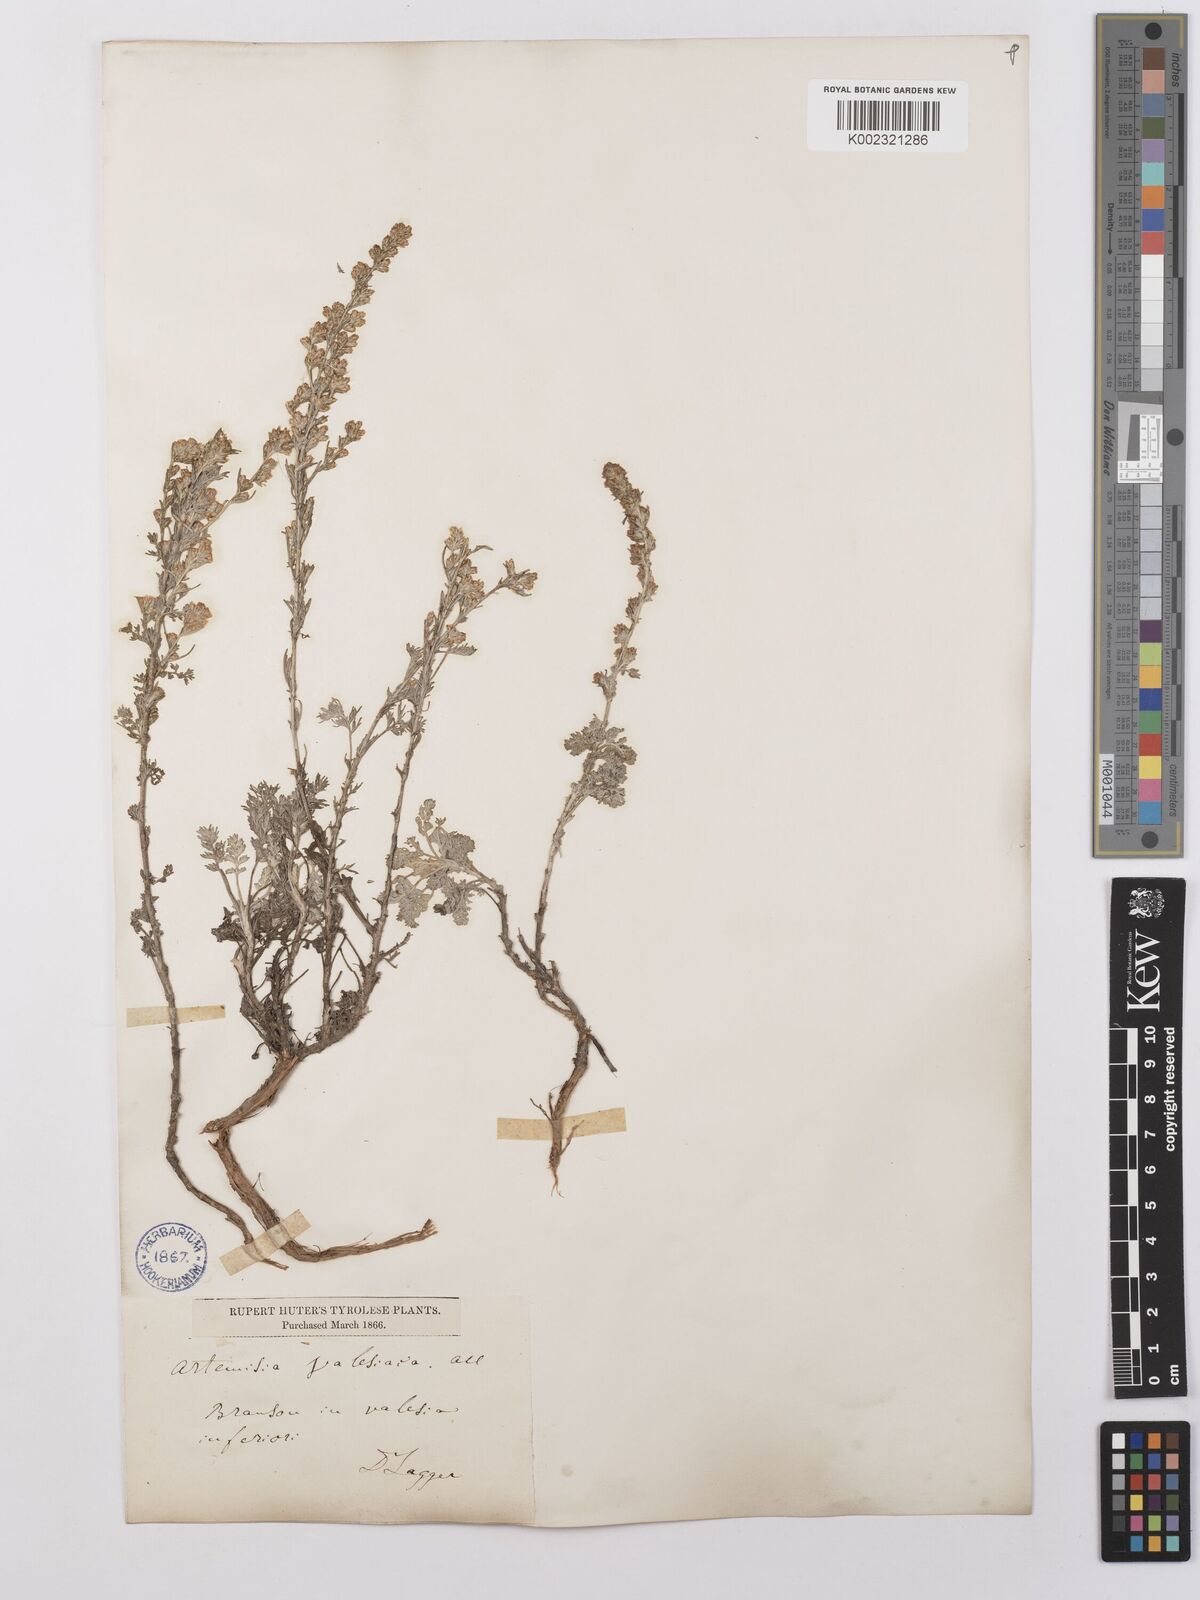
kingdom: Plantae
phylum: Tracheophyta
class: Magnoliopsida
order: Asterales
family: Asteraceae
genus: Artemisia
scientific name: Artemisia vallesiaca
